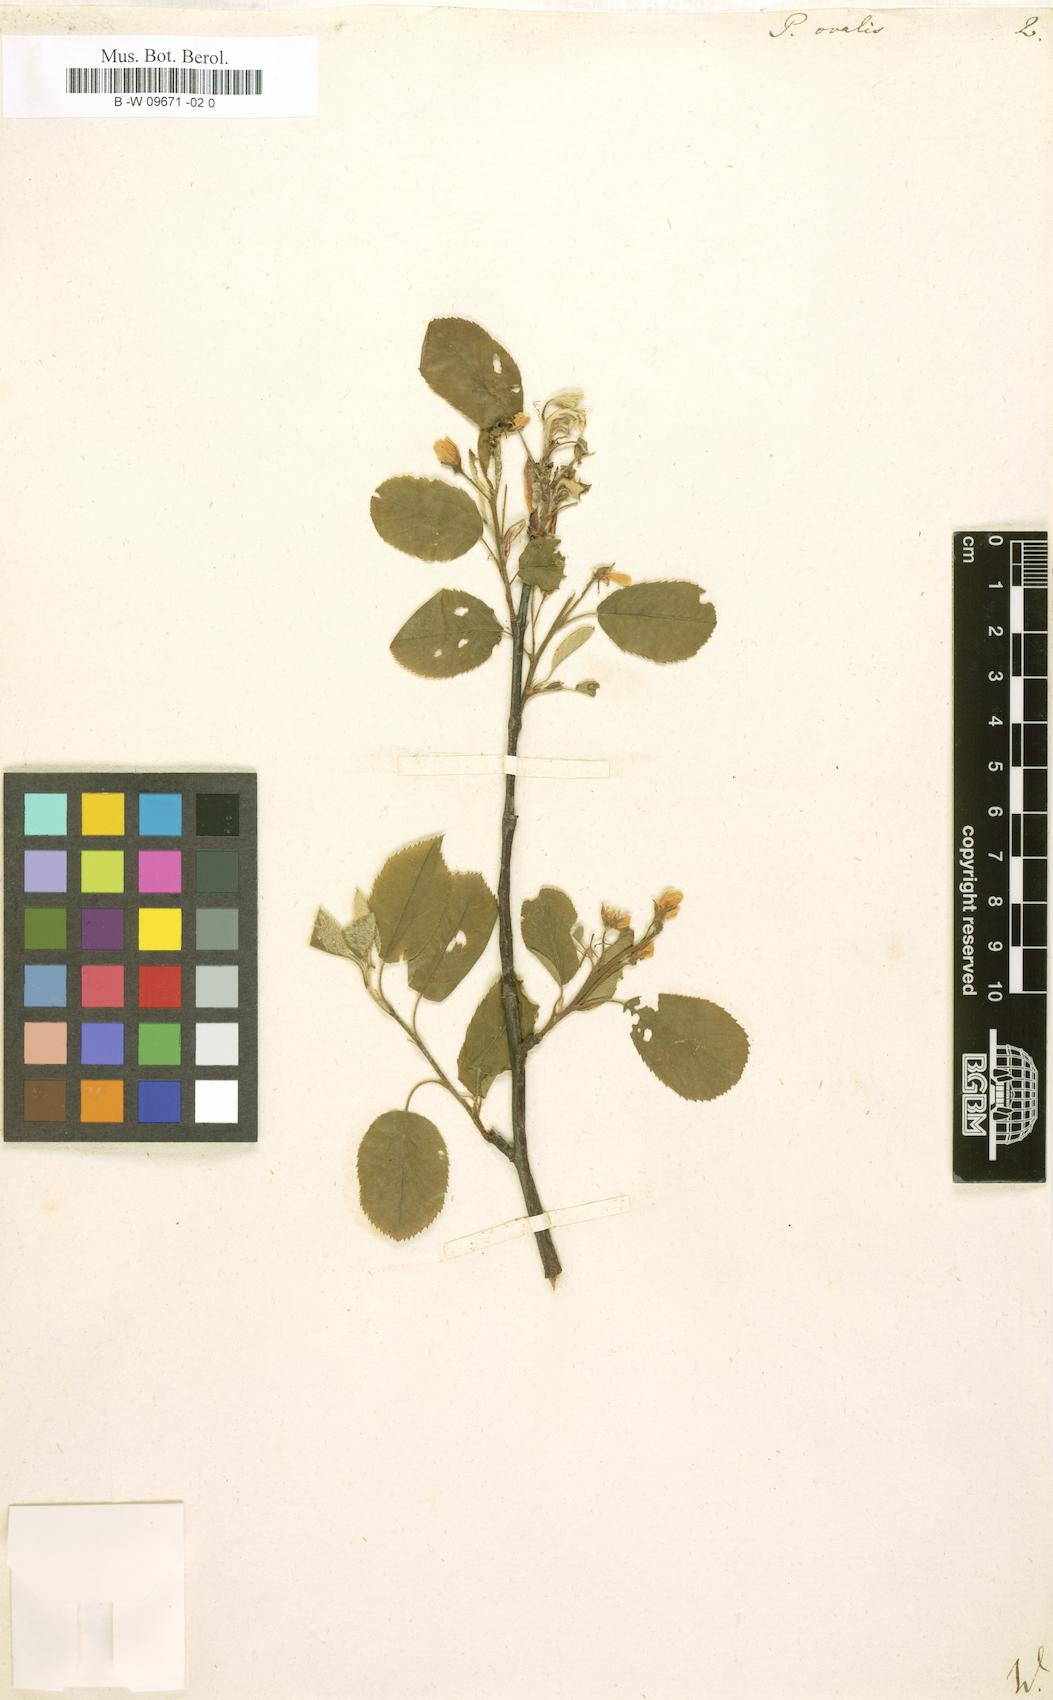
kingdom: Plantae
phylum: Tracheophyta
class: Magnoliopsida
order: Rosales
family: Rosaceae
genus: Amelanchier
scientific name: Amelanchier
